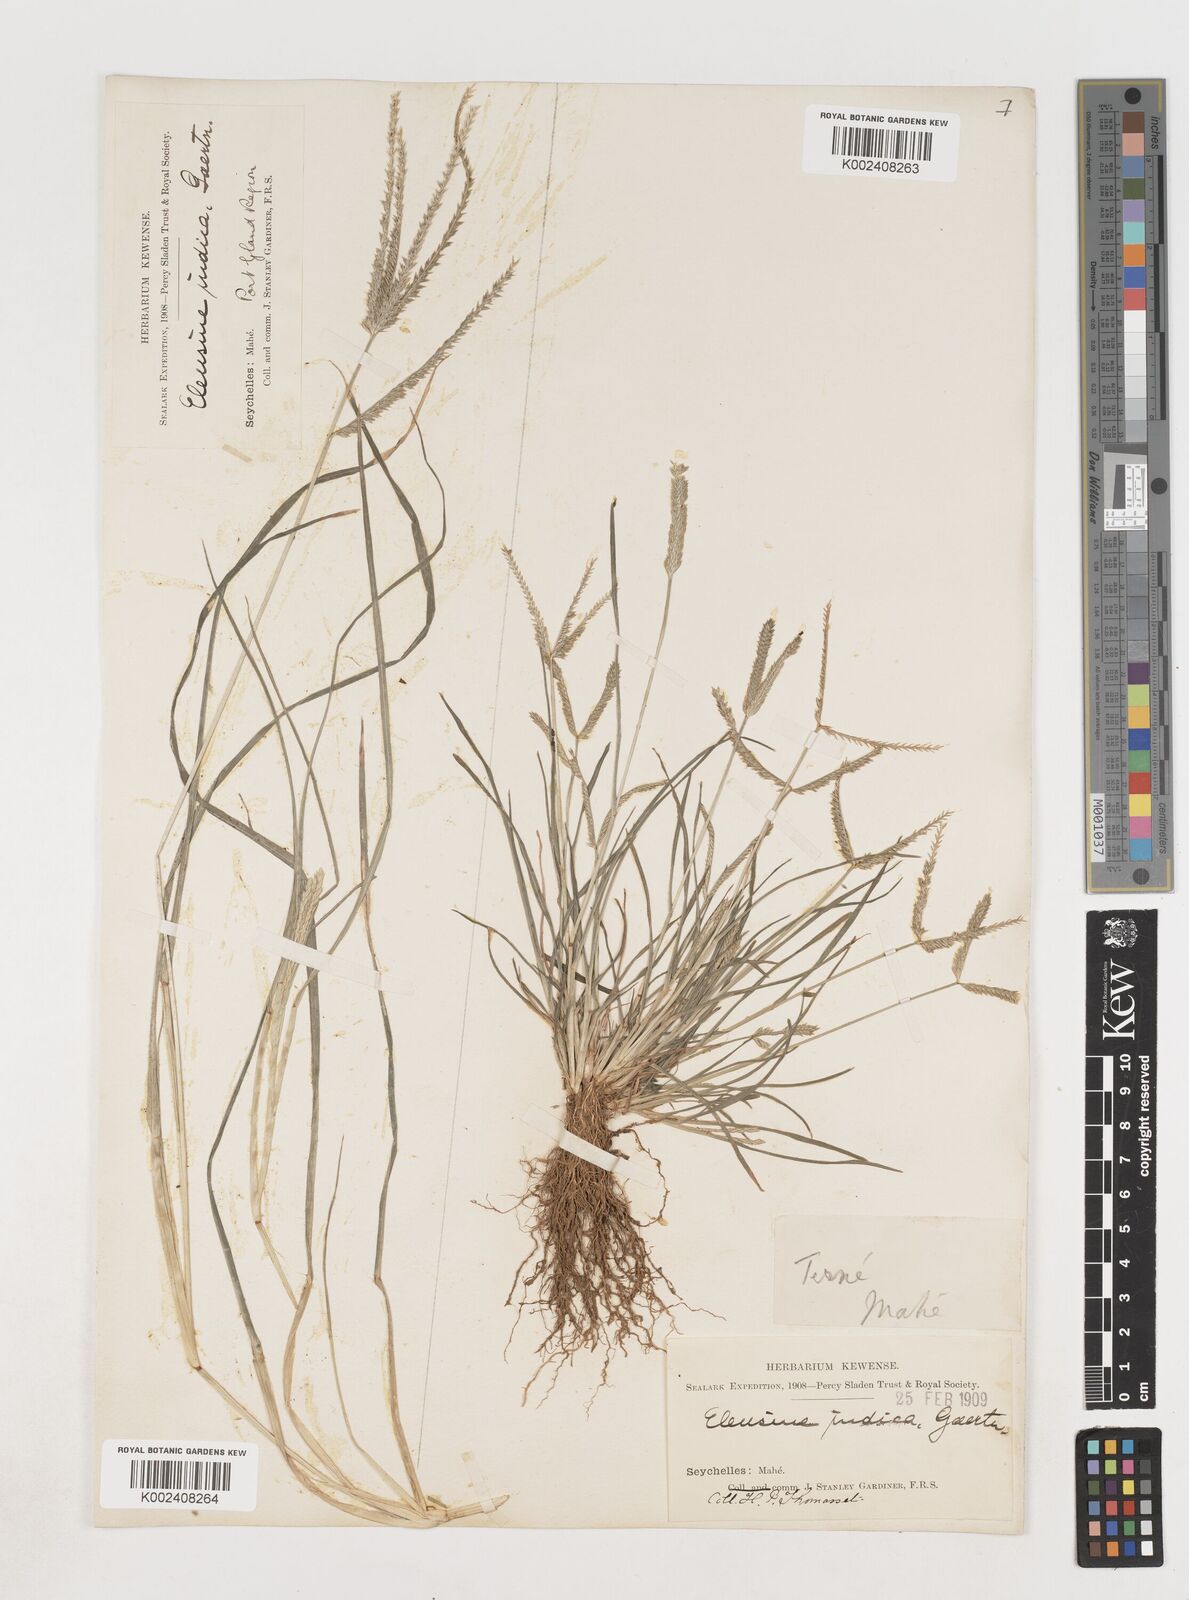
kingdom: Plantae
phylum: Tracheophyta
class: Liliopsida
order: Poales
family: Poaceae
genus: Eleusine
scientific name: Eleusine indica
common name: Yard-grass
